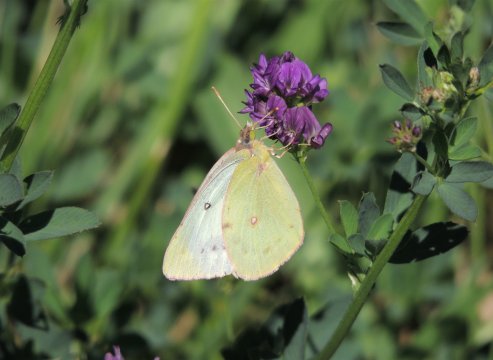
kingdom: Animalia
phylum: Arthropoda
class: Insecta
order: Lepidoptera
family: Pieridae
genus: Colias
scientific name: Colias philodice
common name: Clouded Sulphur
